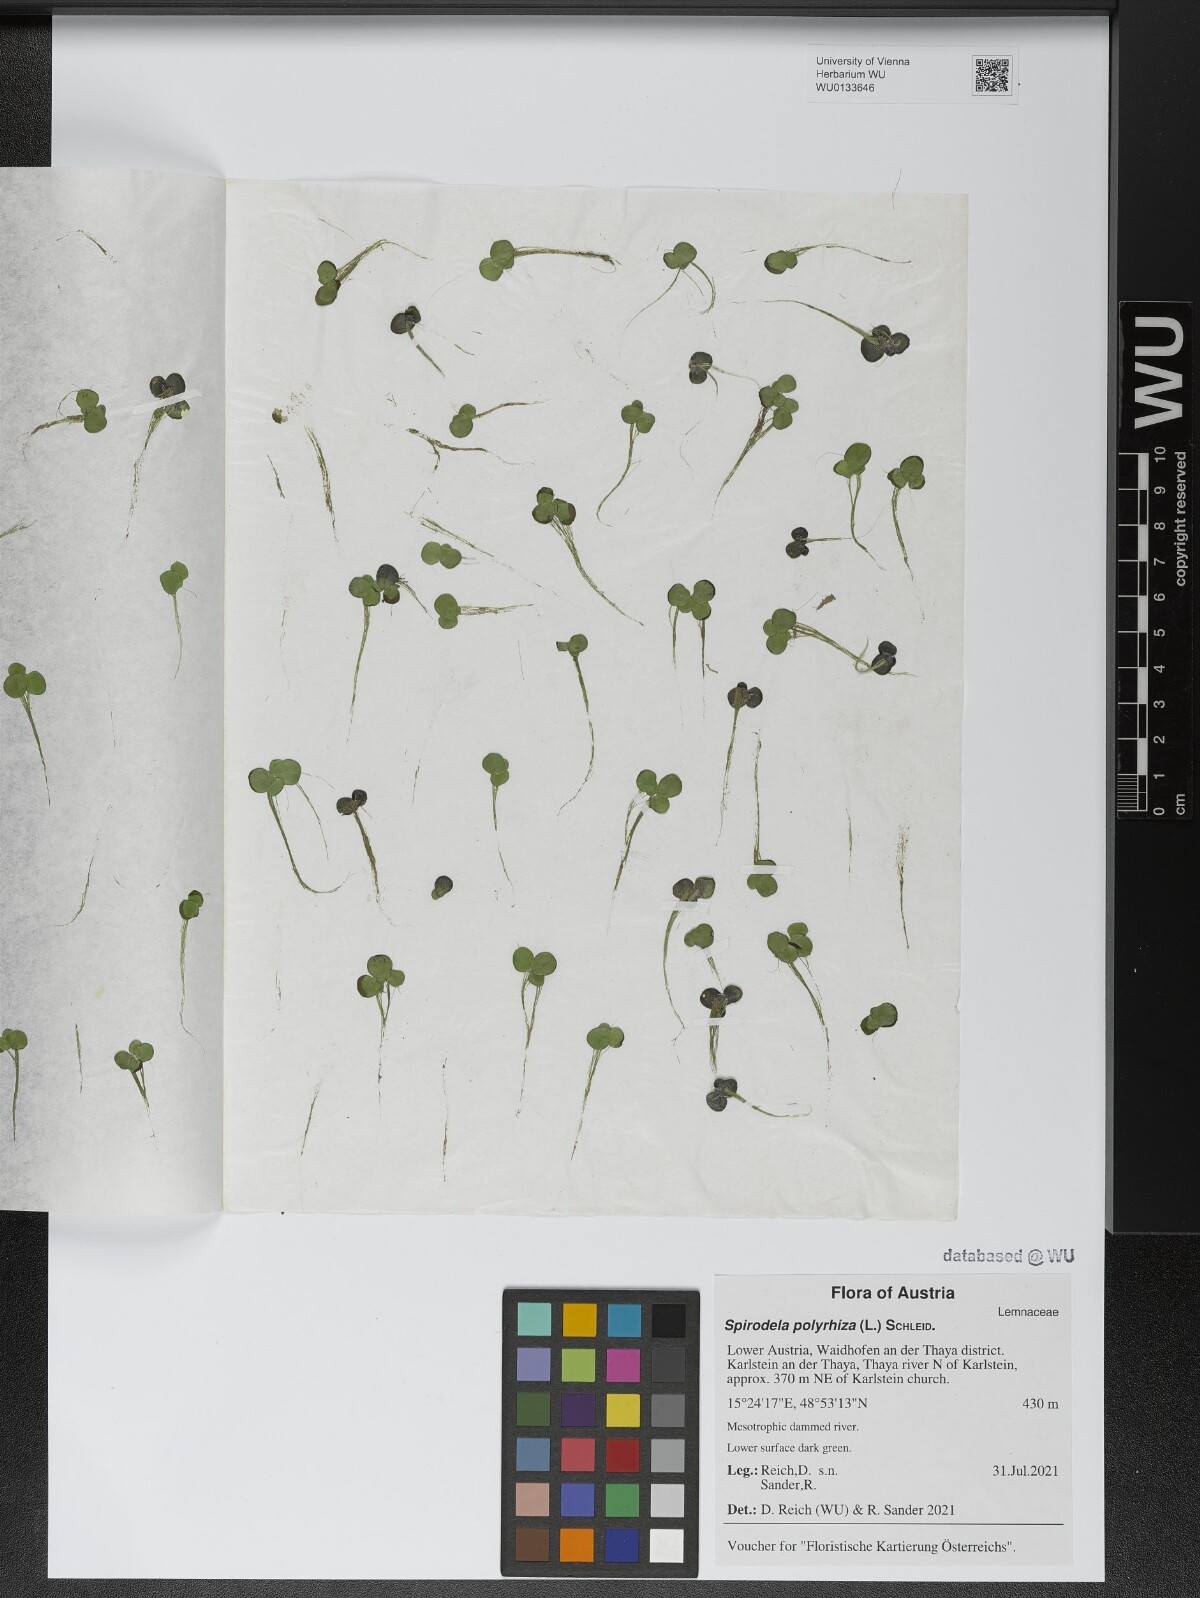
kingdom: Plantae
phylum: Tracheophyta
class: Liliopsida
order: Alismatales
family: Araceae
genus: Spirodela
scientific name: Spirodela polyrhiza
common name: Great duckweed
